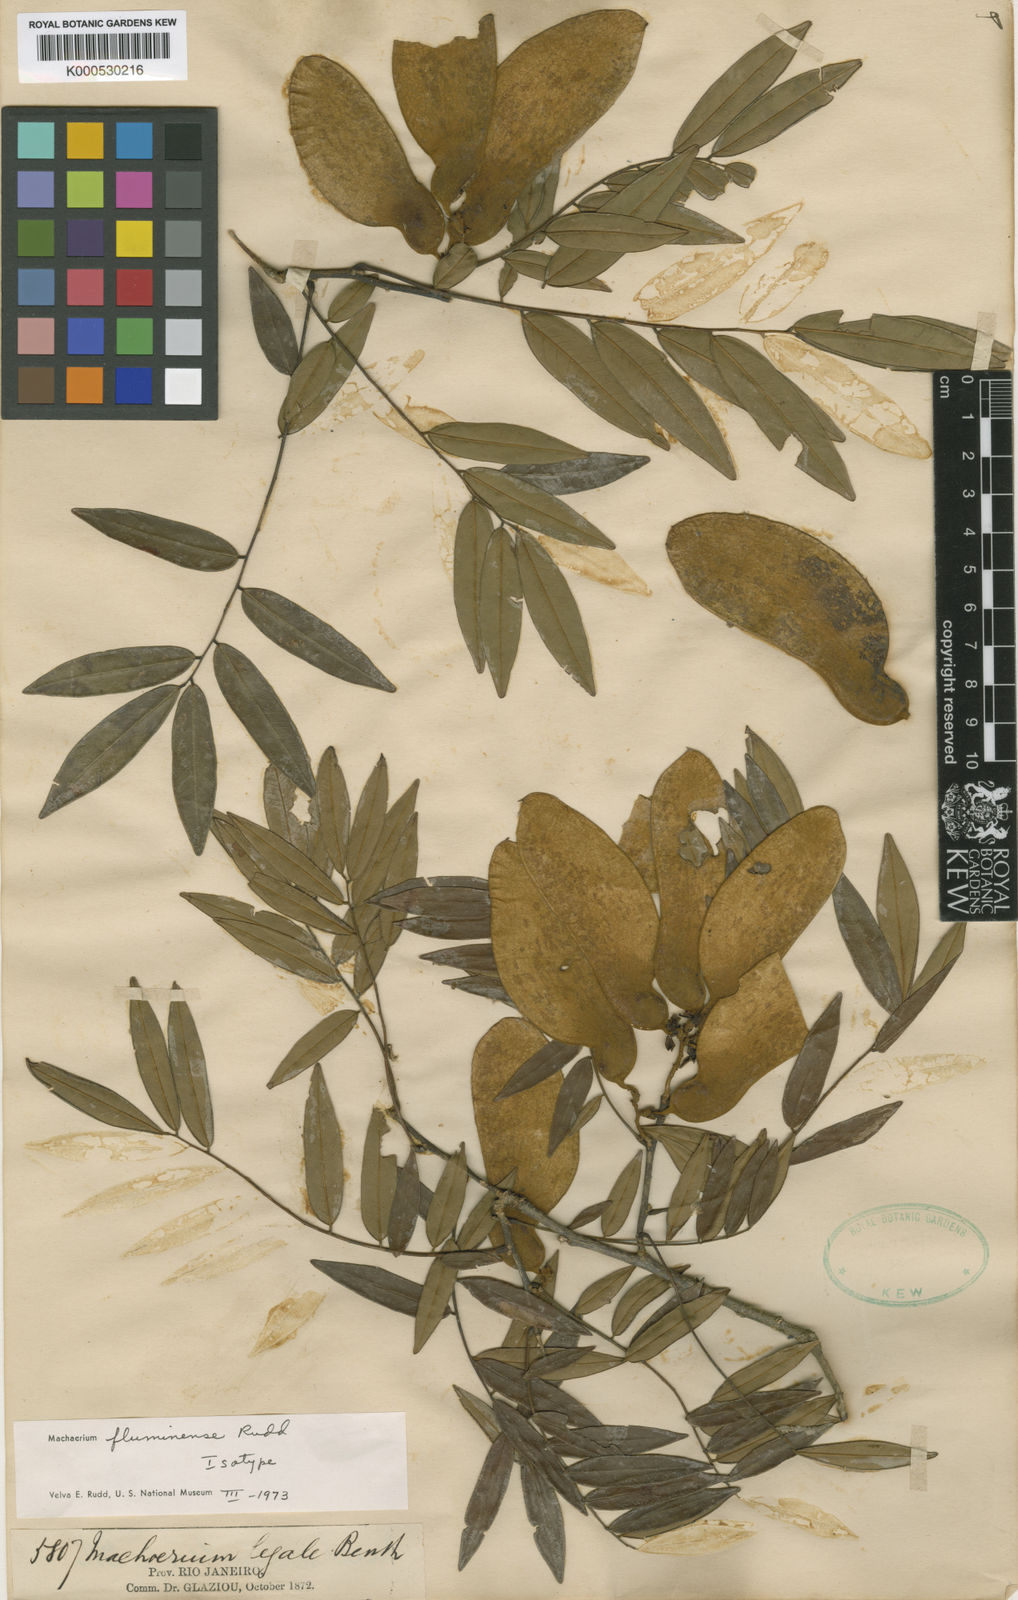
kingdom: Plantae
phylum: Tracheophyta
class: Magnoliopsida
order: Fabales
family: Fabaceae
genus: Machaerium
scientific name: Machaerium incorruptibile
